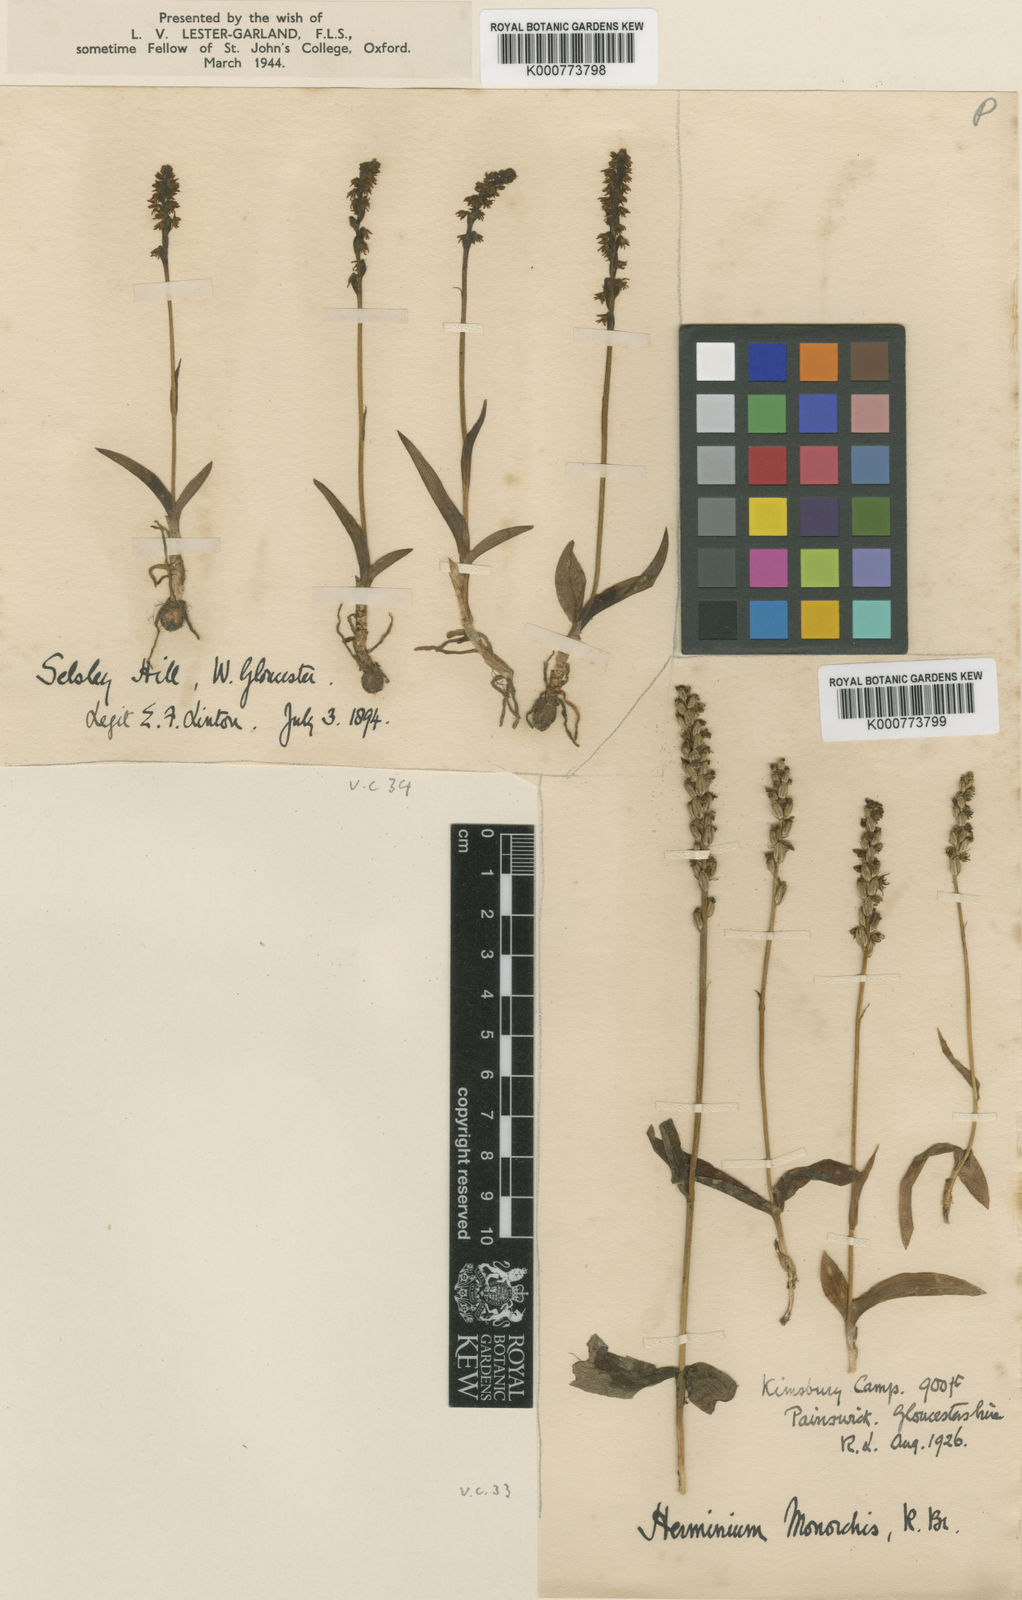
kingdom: Plantae
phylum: Tracheophyta
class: Liliopsida
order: Asparagales
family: Orchidaceae
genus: Herminium
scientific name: Herminium monorchis
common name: Musk orchid
